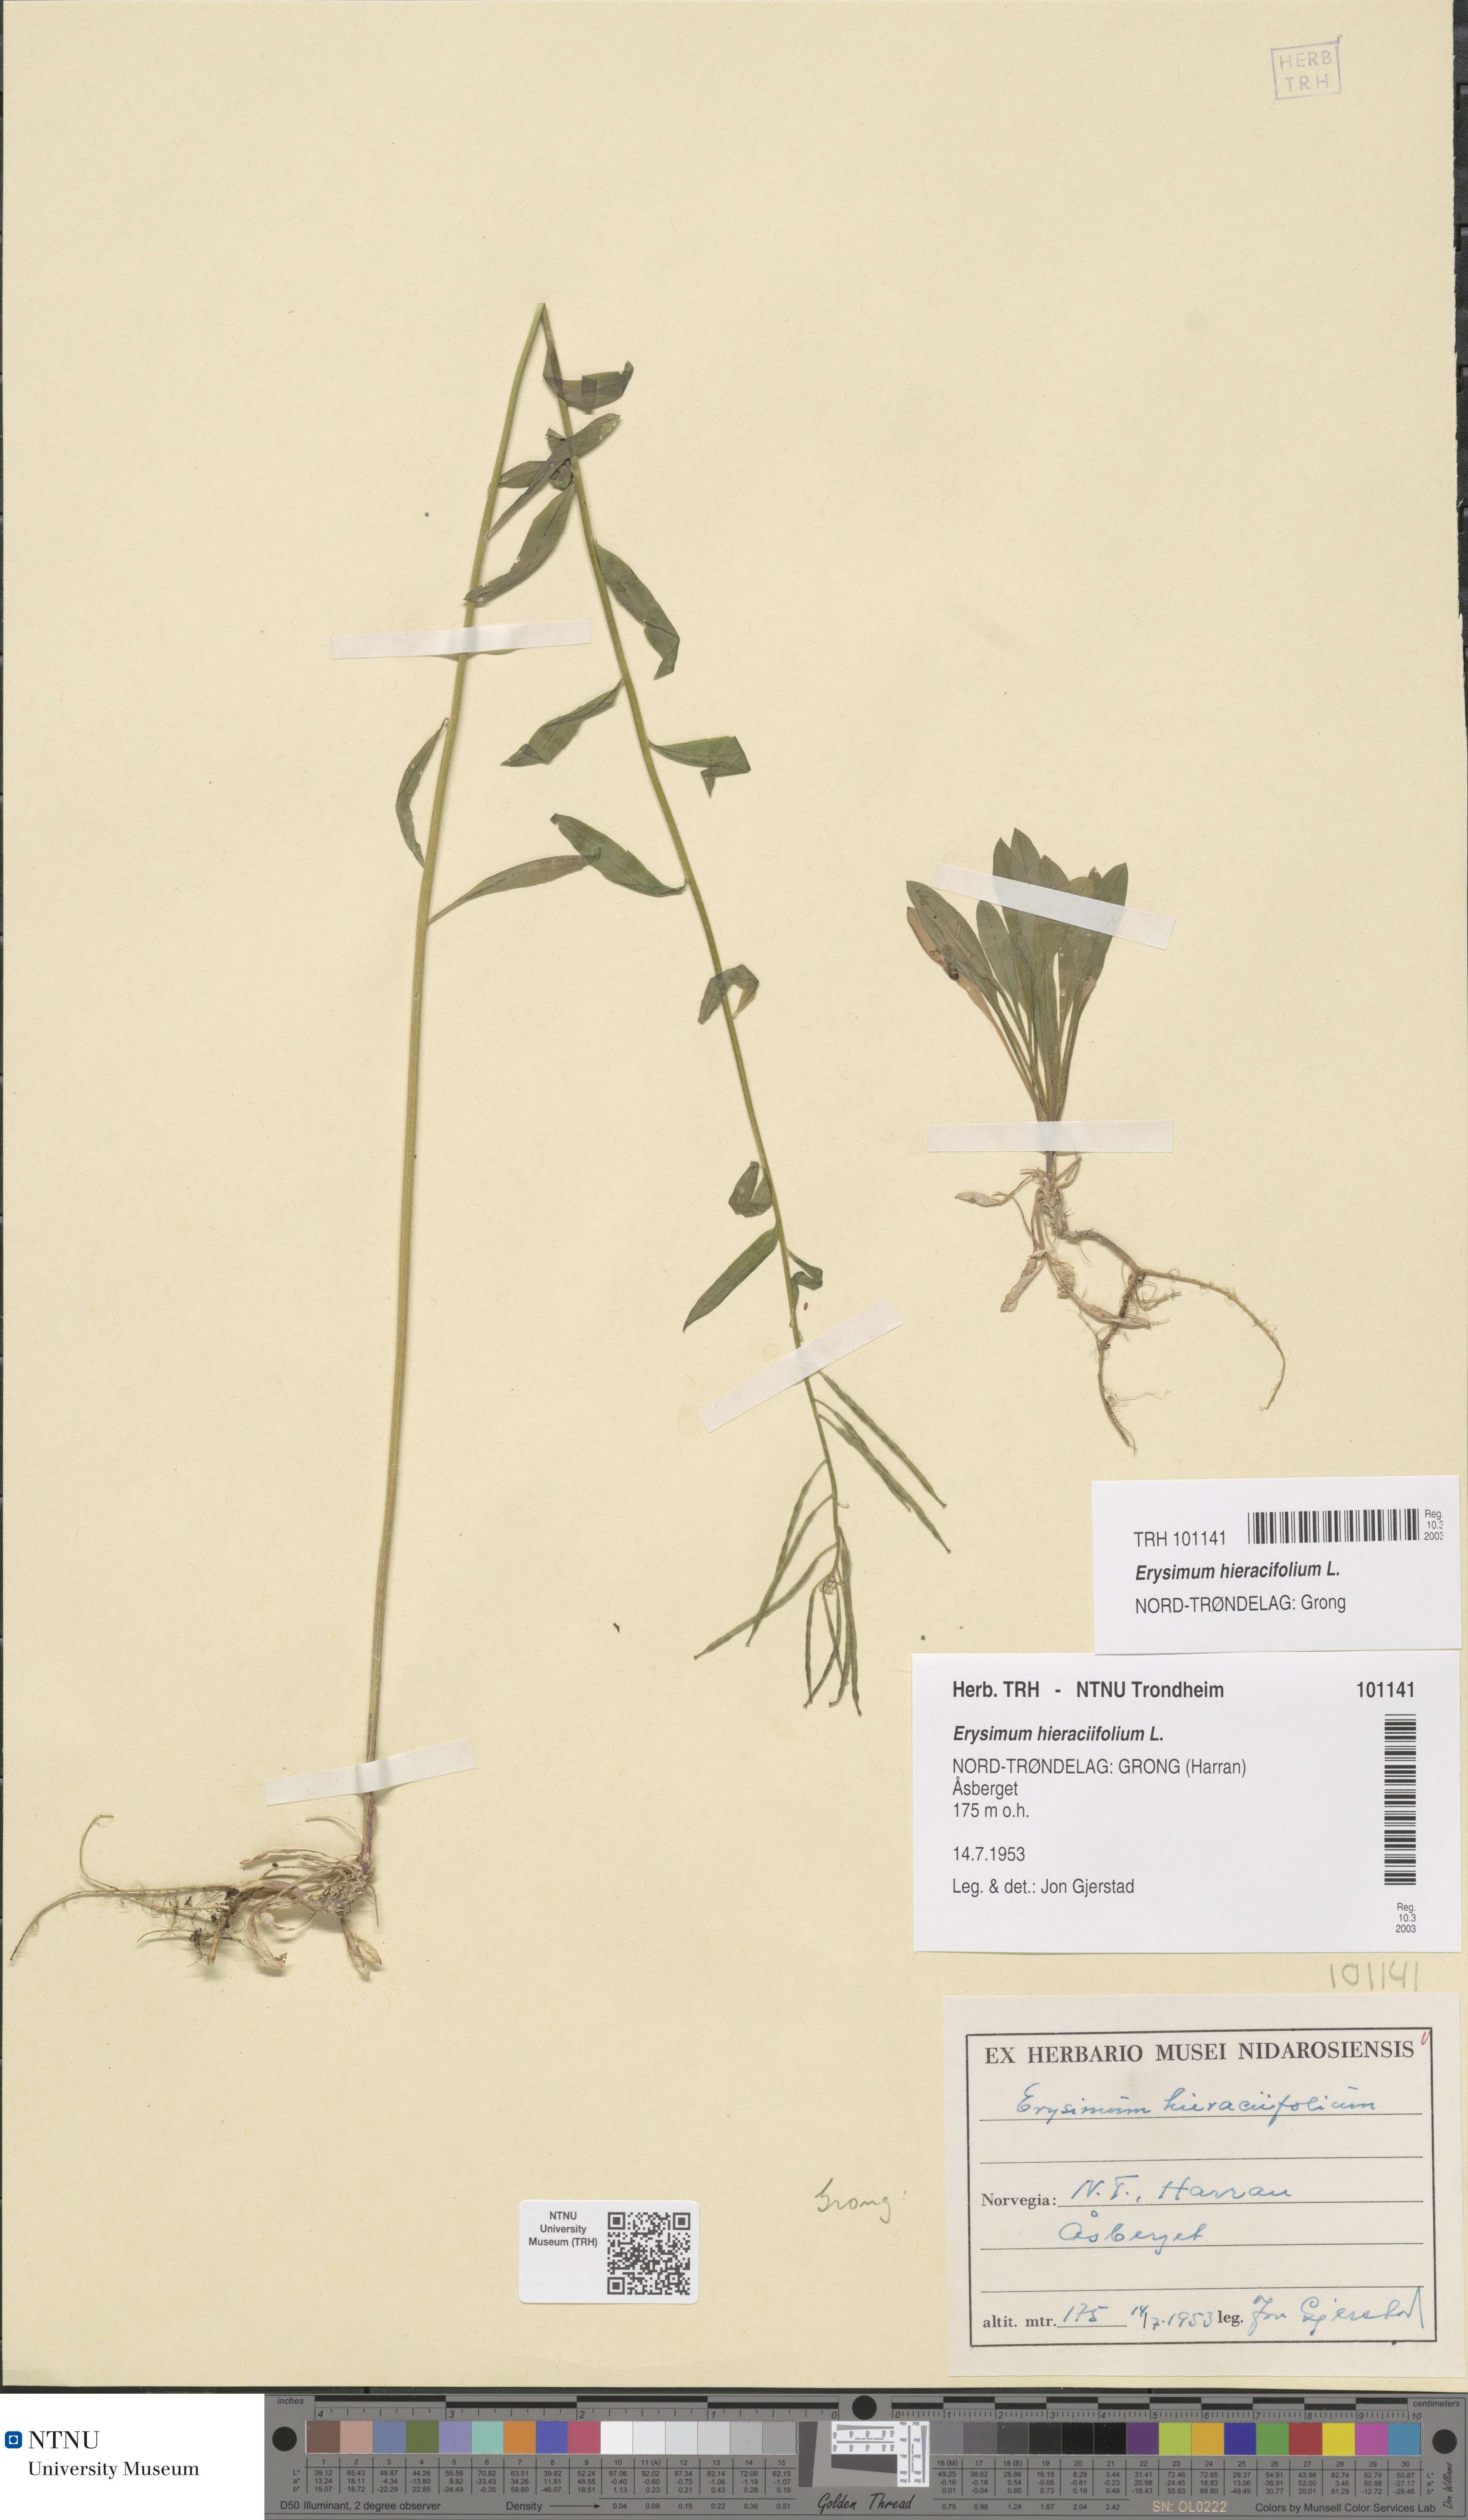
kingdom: Plantae
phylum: Tracheophyta
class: Magnoliopsida
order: Brassicales
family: Brassicaceae
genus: Erysimum
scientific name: Erysimum virgatum
